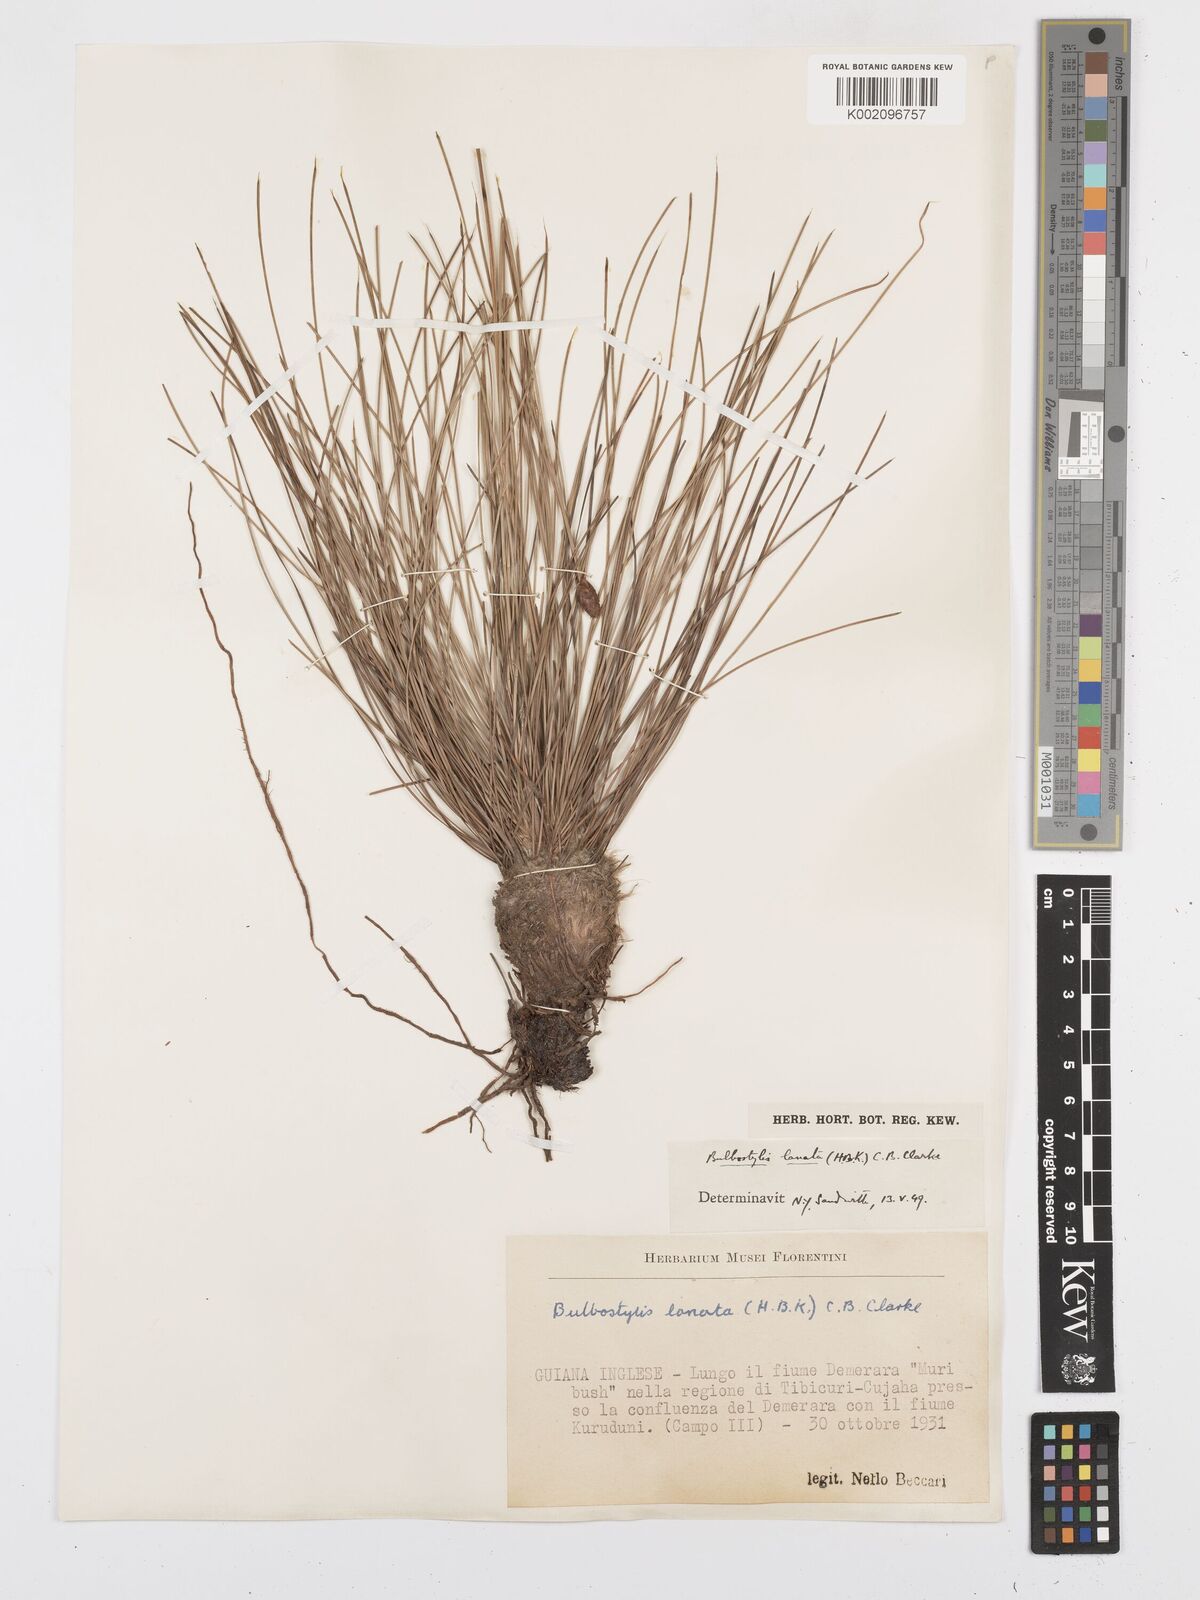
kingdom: Plantae
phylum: Tracheophyta
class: Liliopsida
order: Poales
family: Cyperaceae
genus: Bulbostylis
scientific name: Bulbostylis
